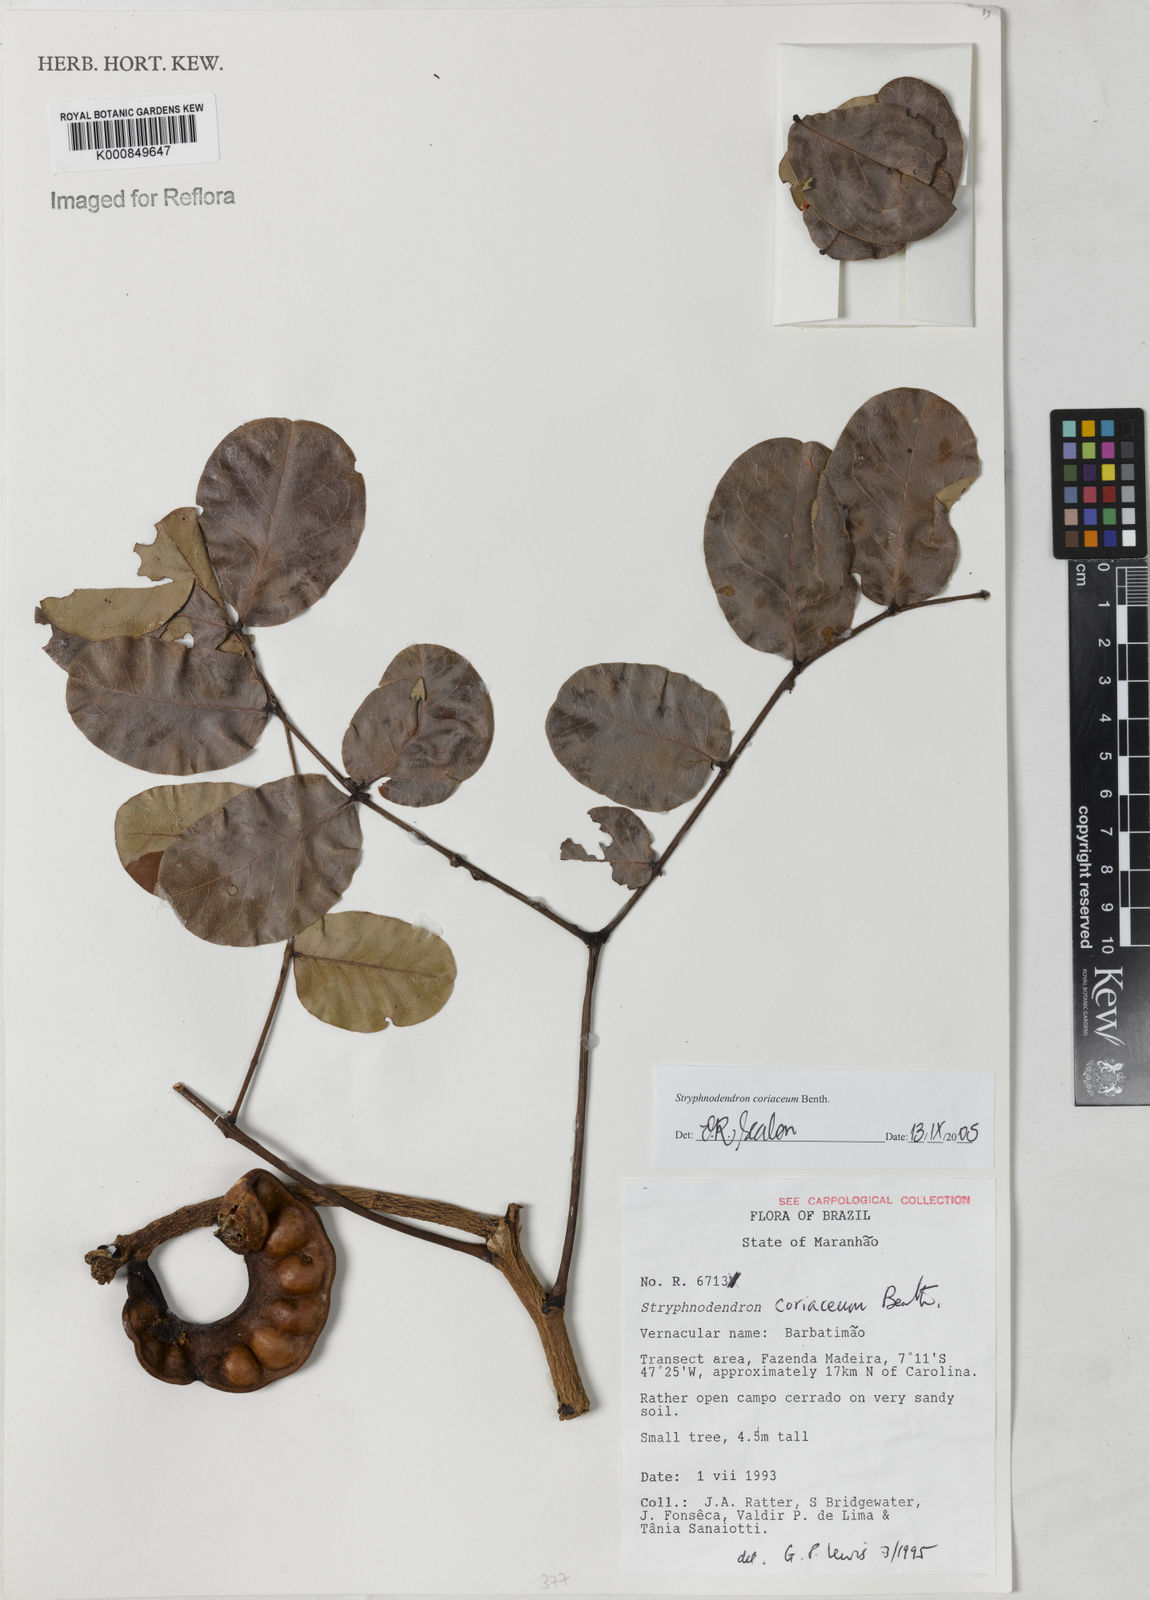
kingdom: Plantae
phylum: Tracheophyta
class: Magnoliopsida
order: Fabales
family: Fabaceae
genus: Stryphnodendron
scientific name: Stryphnodendron coriaceum
